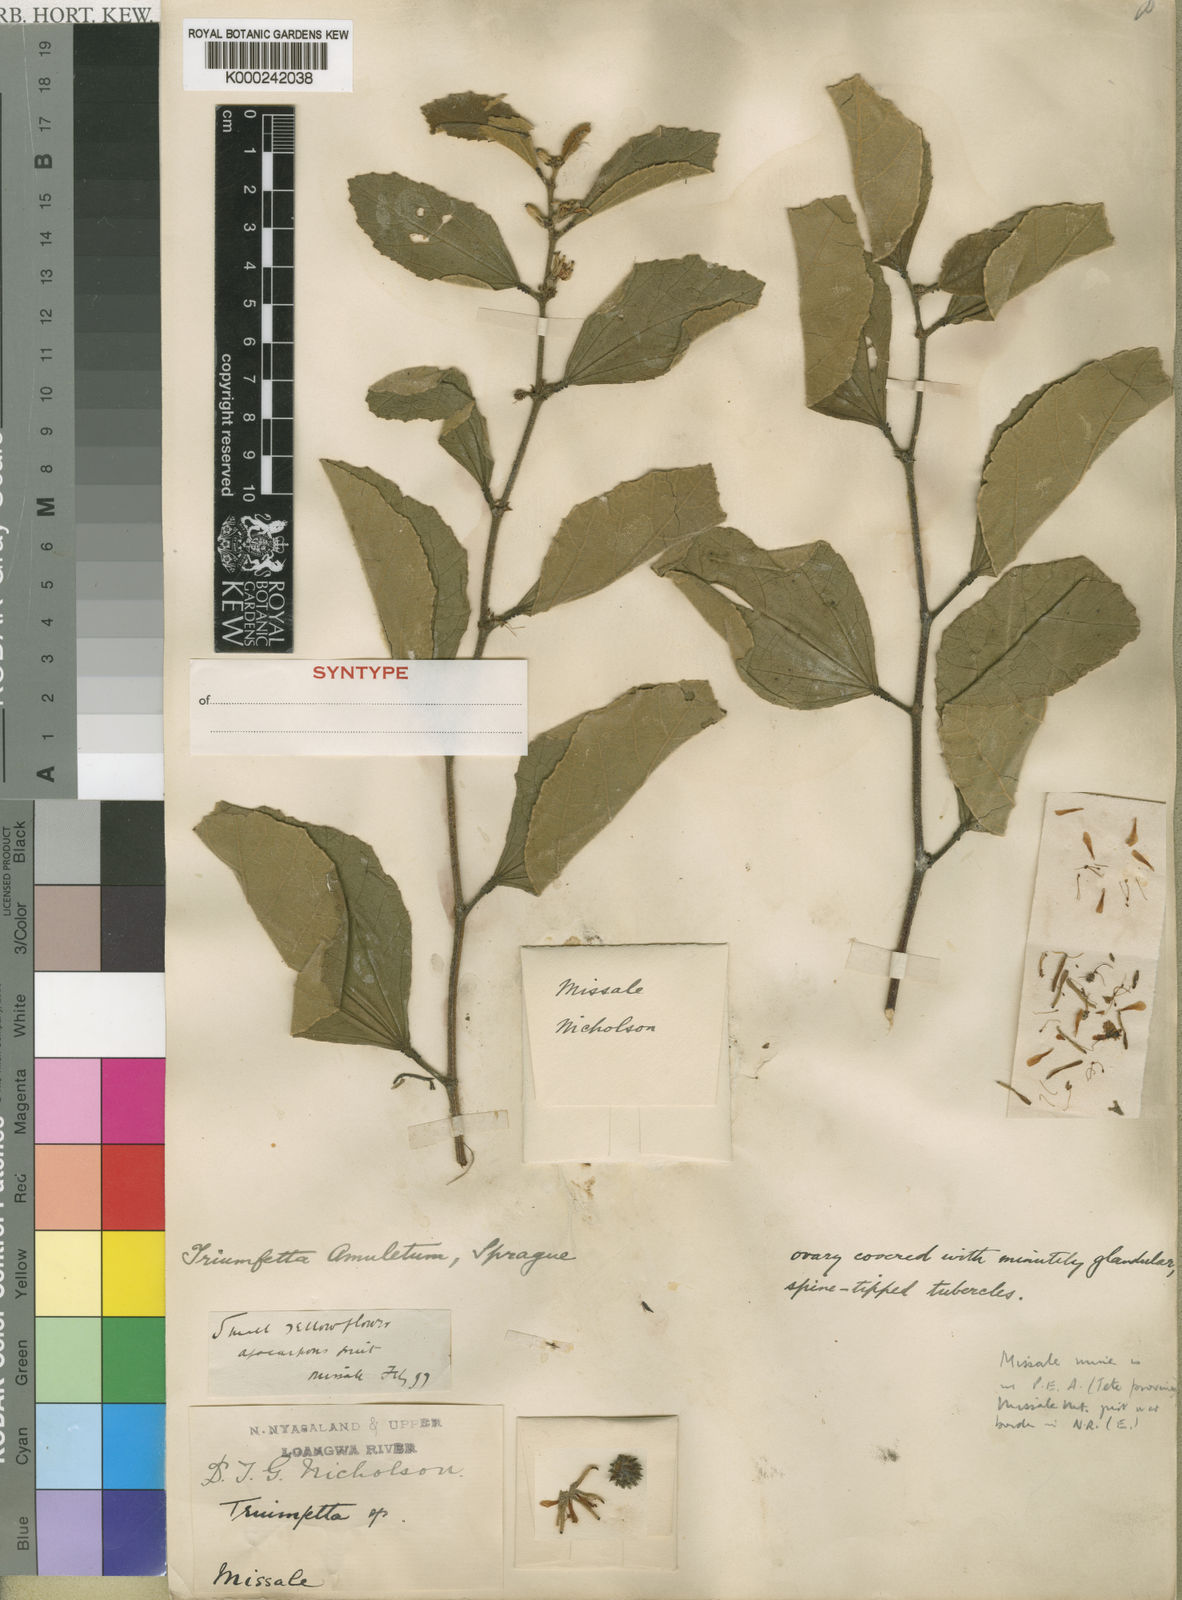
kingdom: Plantae
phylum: Tracheophyta
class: Magnoliopsida
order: Malvales
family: Malvaceae
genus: Triumfetta
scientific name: Triumfetta amuletum
